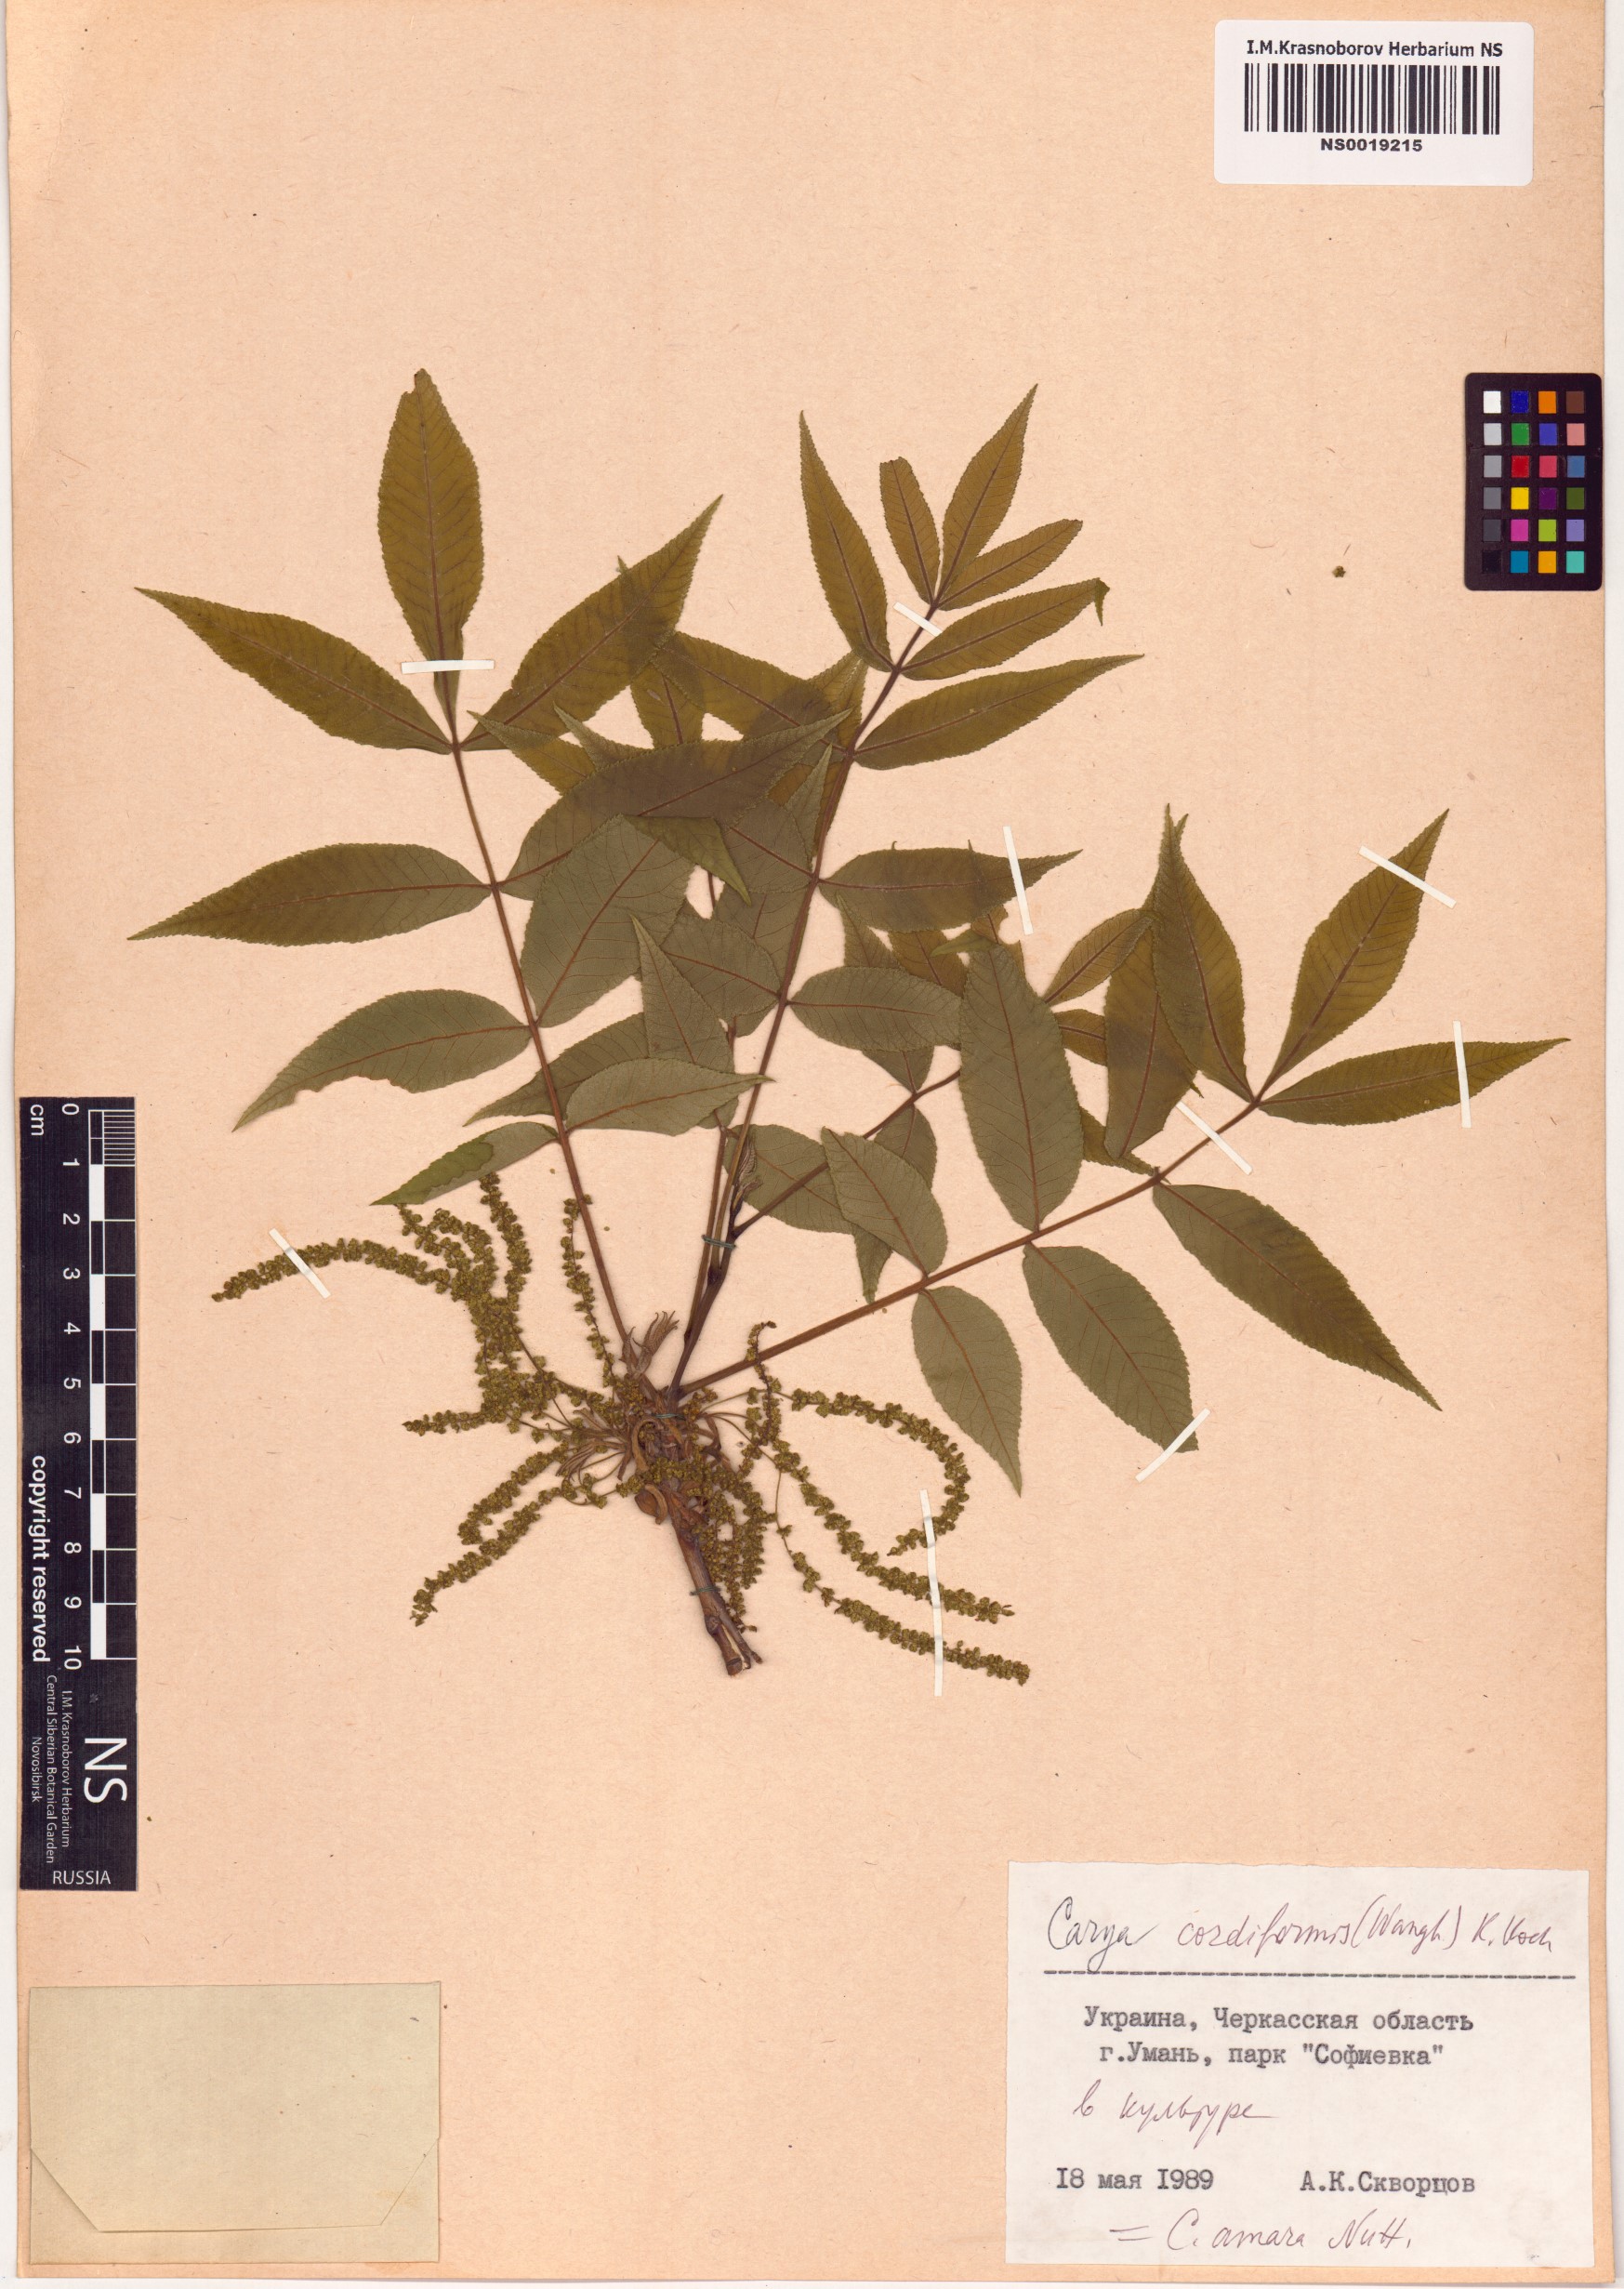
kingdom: Plantae
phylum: Tracheophyta
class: Magnoliopsida
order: Fagales
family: Juglandaceae
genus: Carya
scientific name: Carya cordiformis
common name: Bitternut hickory
